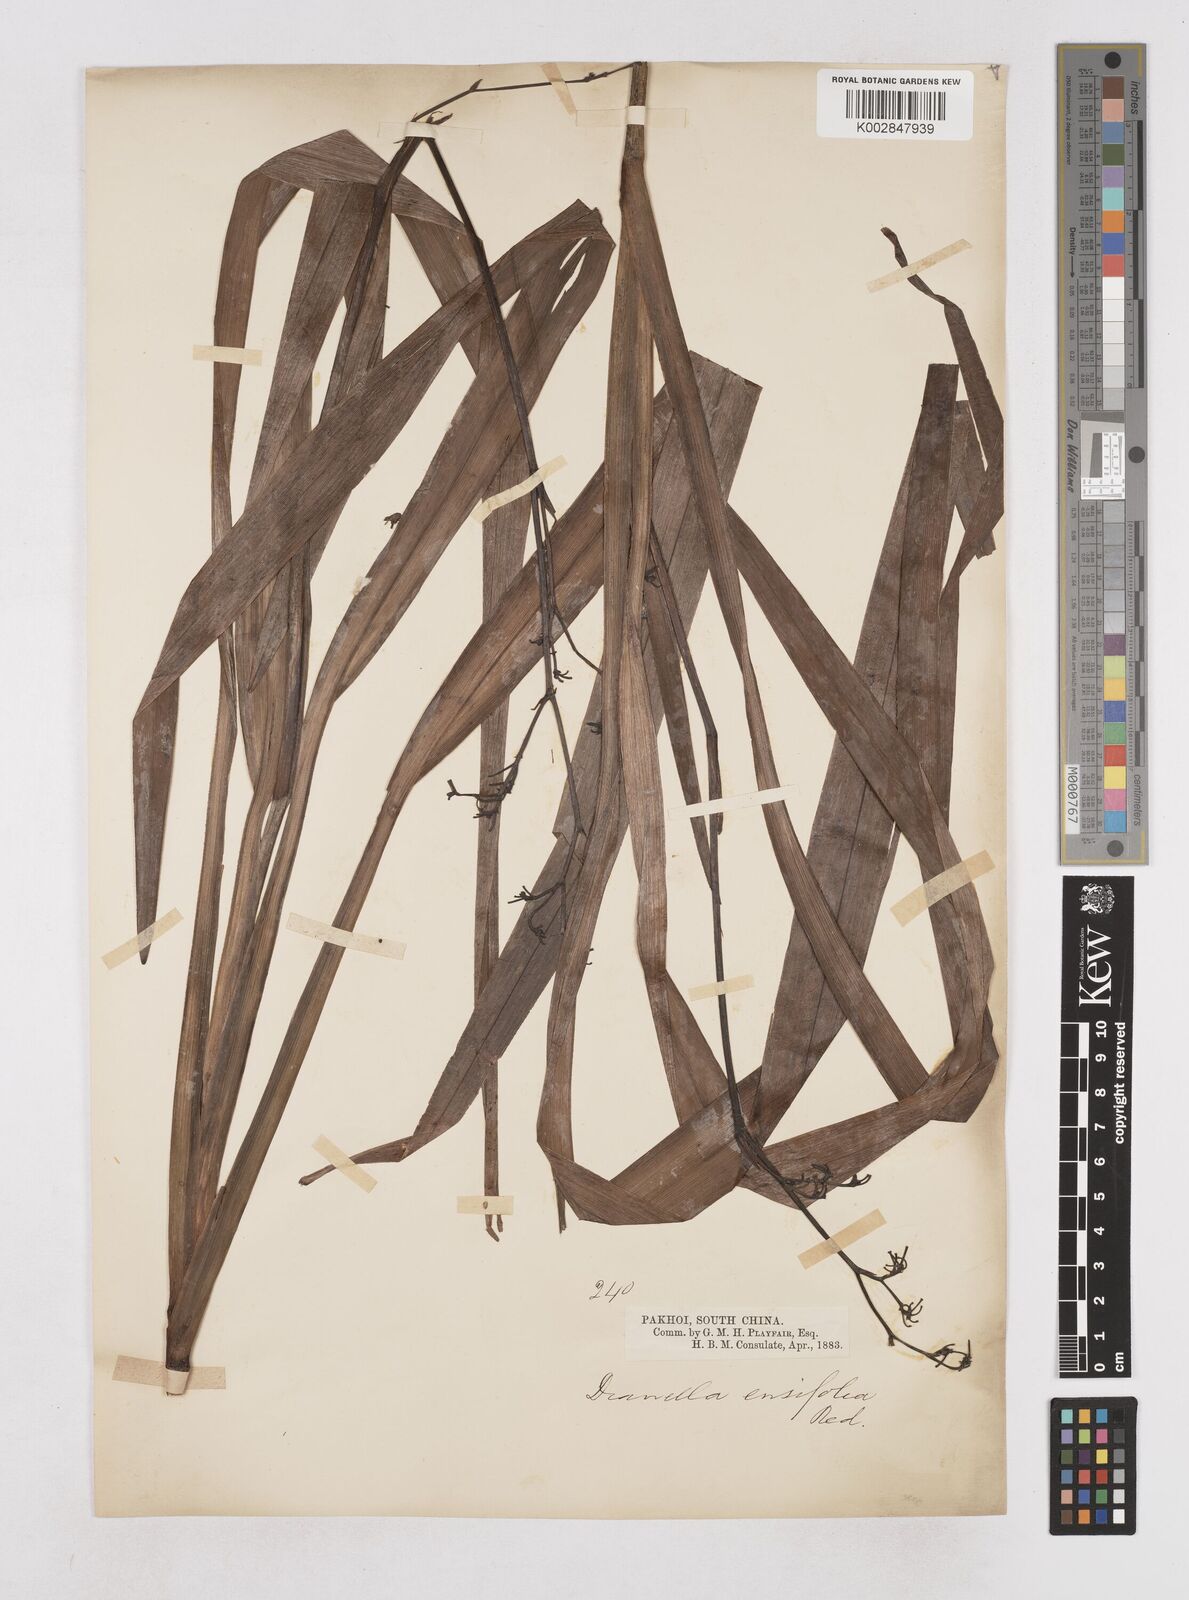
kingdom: Plantae
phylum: Tracheophyta
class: Liliopsida
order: Asparagales
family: Asphodelaceae
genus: Dianella
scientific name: Dianella ensifolia
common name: New zealand lilyplant
